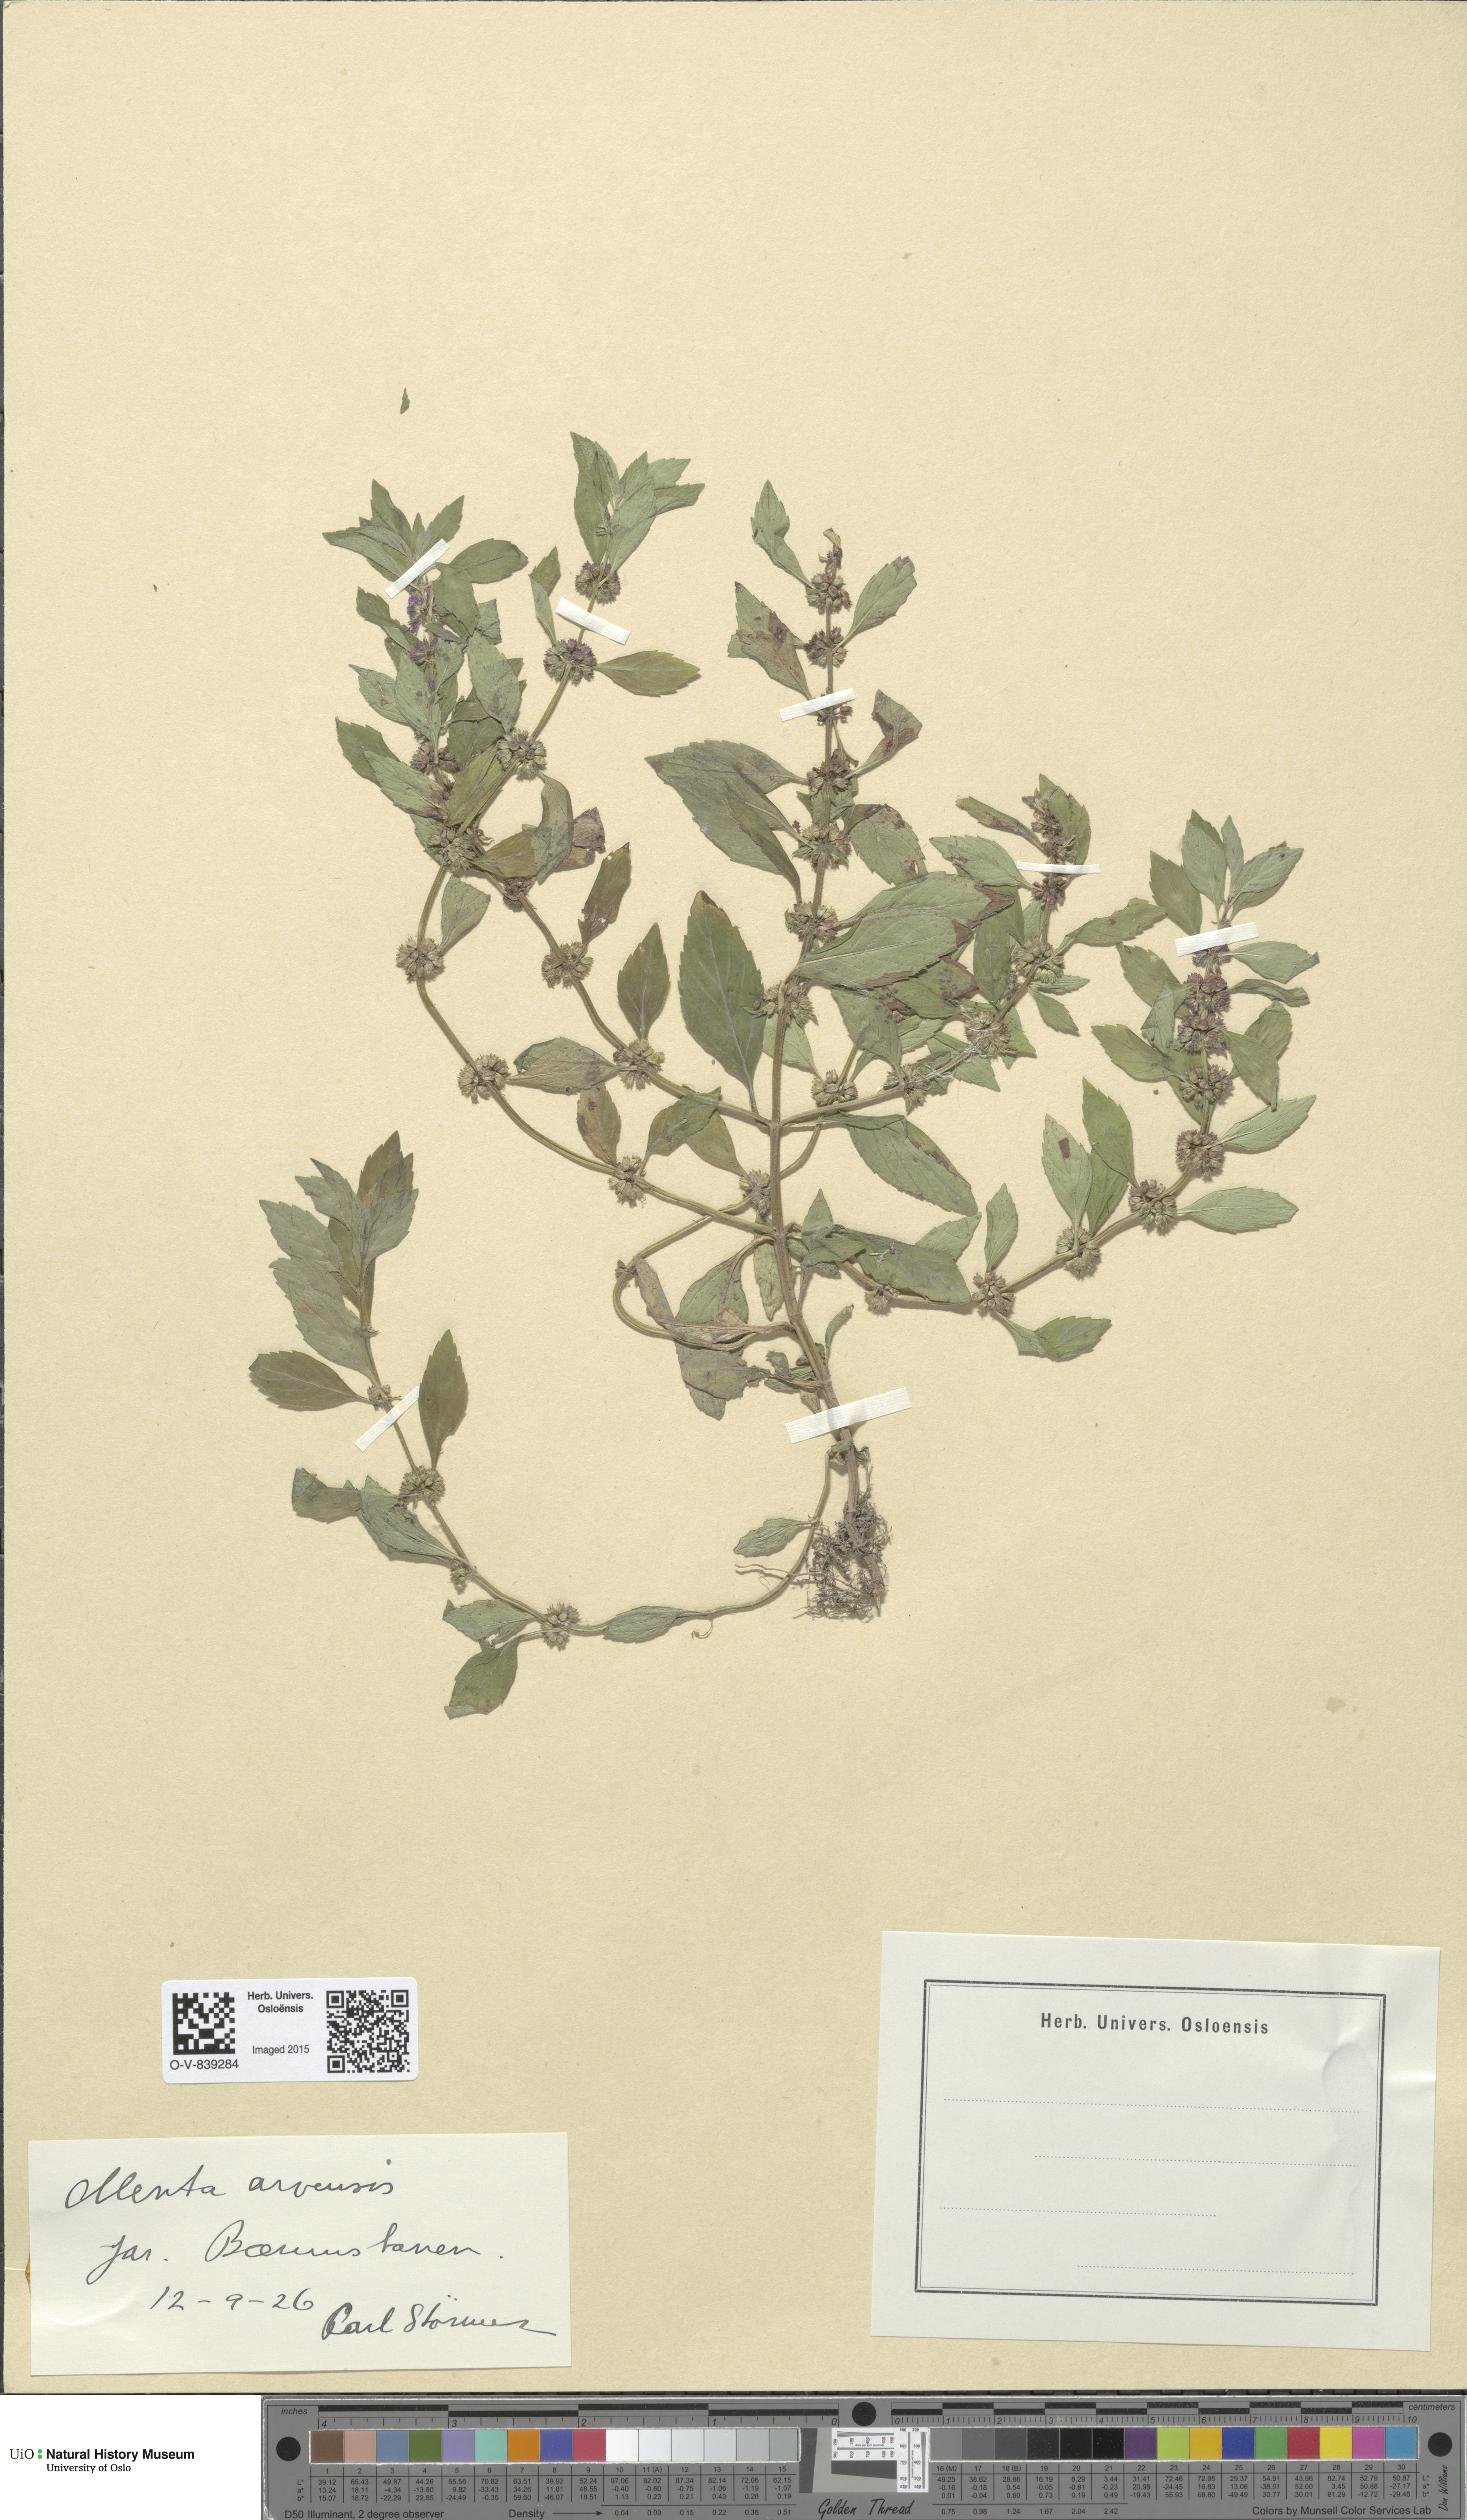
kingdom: Plantae
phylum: Tracheophyta
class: Magnoliopsida
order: Lamiales
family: Lamiaceae
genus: Mentha
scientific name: Mentha arvensis
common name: Corn mint
